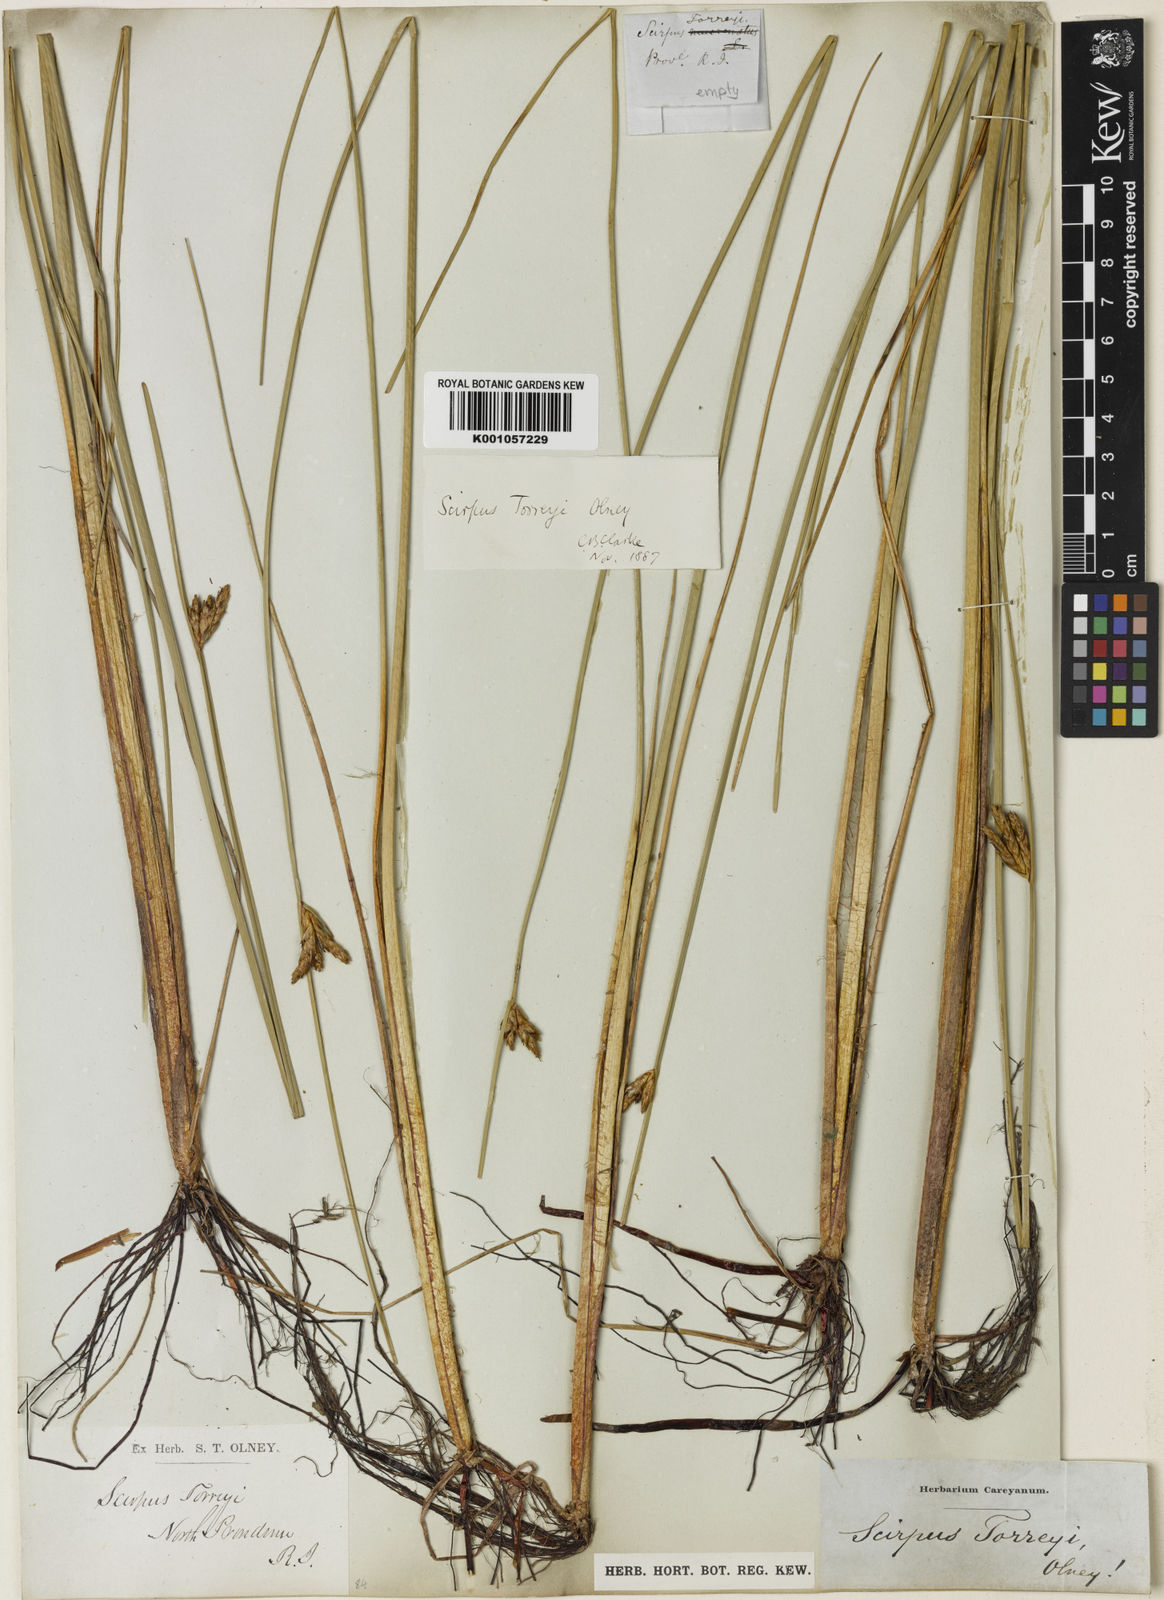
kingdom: Plantae
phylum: Tracheophyta
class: Liliopsida
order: Poales
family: Cyperaceae
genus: Schoenoplectus
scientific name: Schoenoplectus torreyi
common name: Torrey's bulrush
